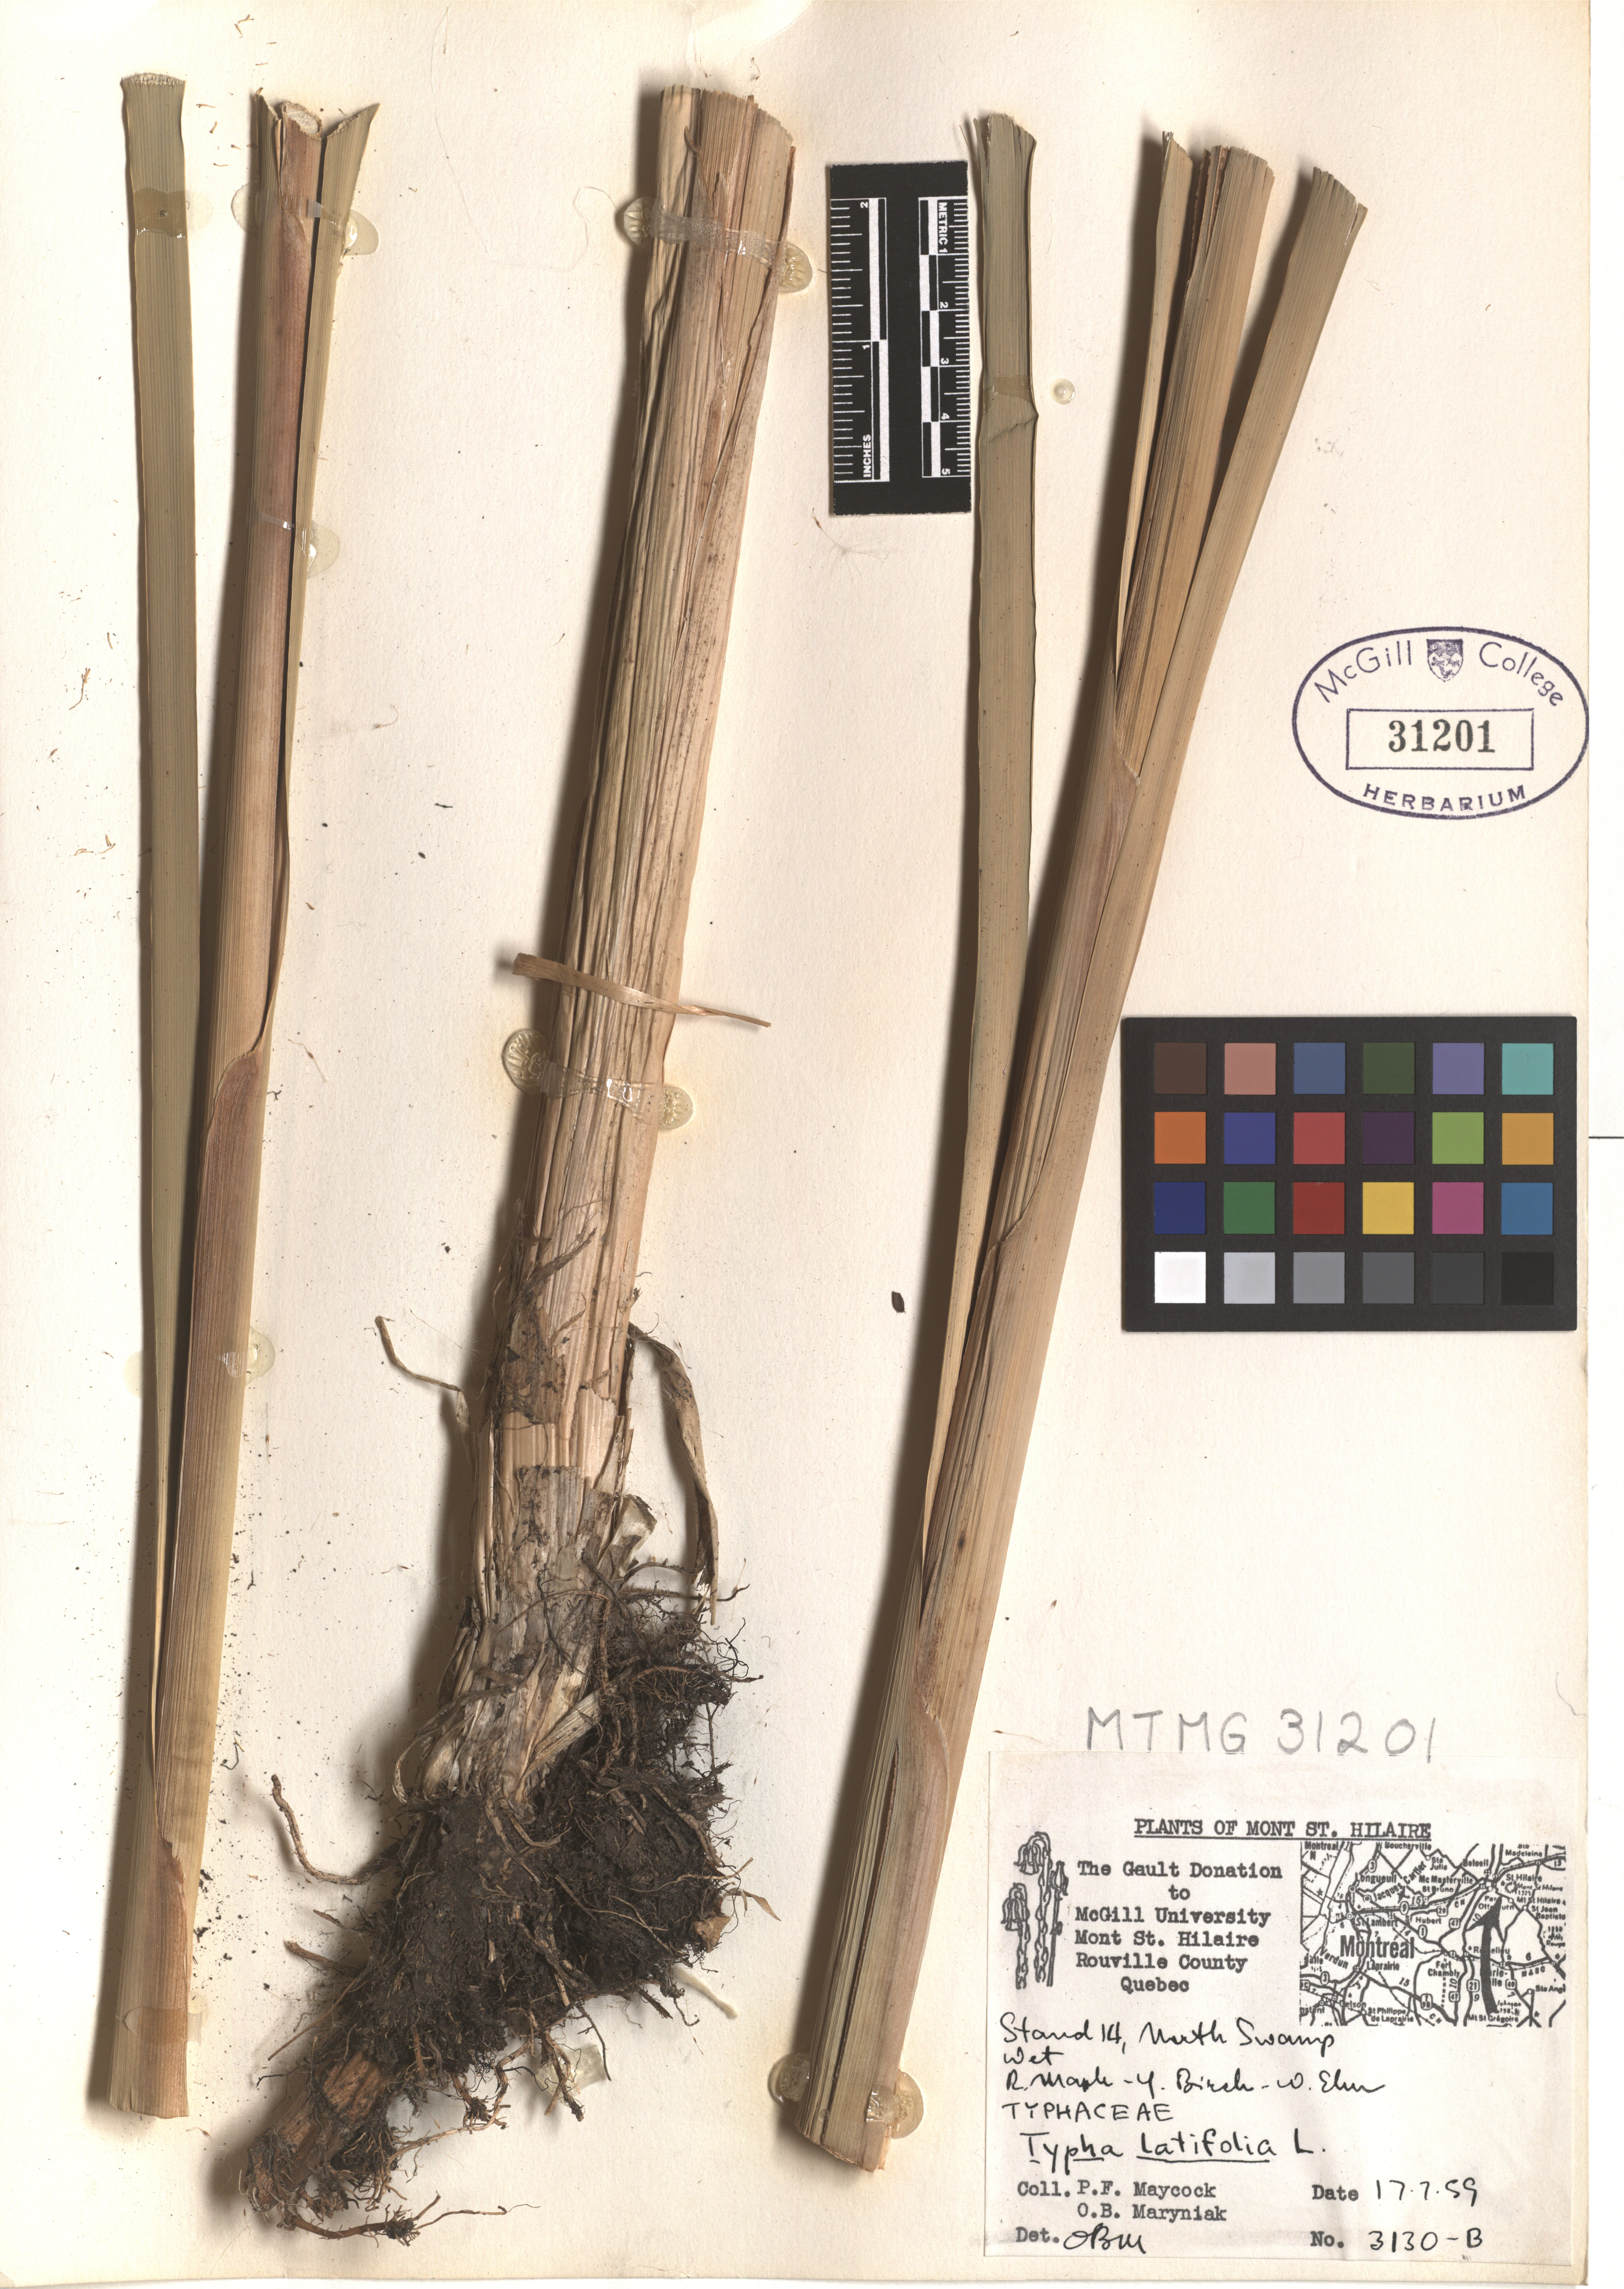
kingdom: Plantae
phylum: Tracheophyta
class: Liliopsida
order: Poales
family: Typhaceae
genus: Typha
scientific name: Typha latifolia
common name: Broadleaf cattail
